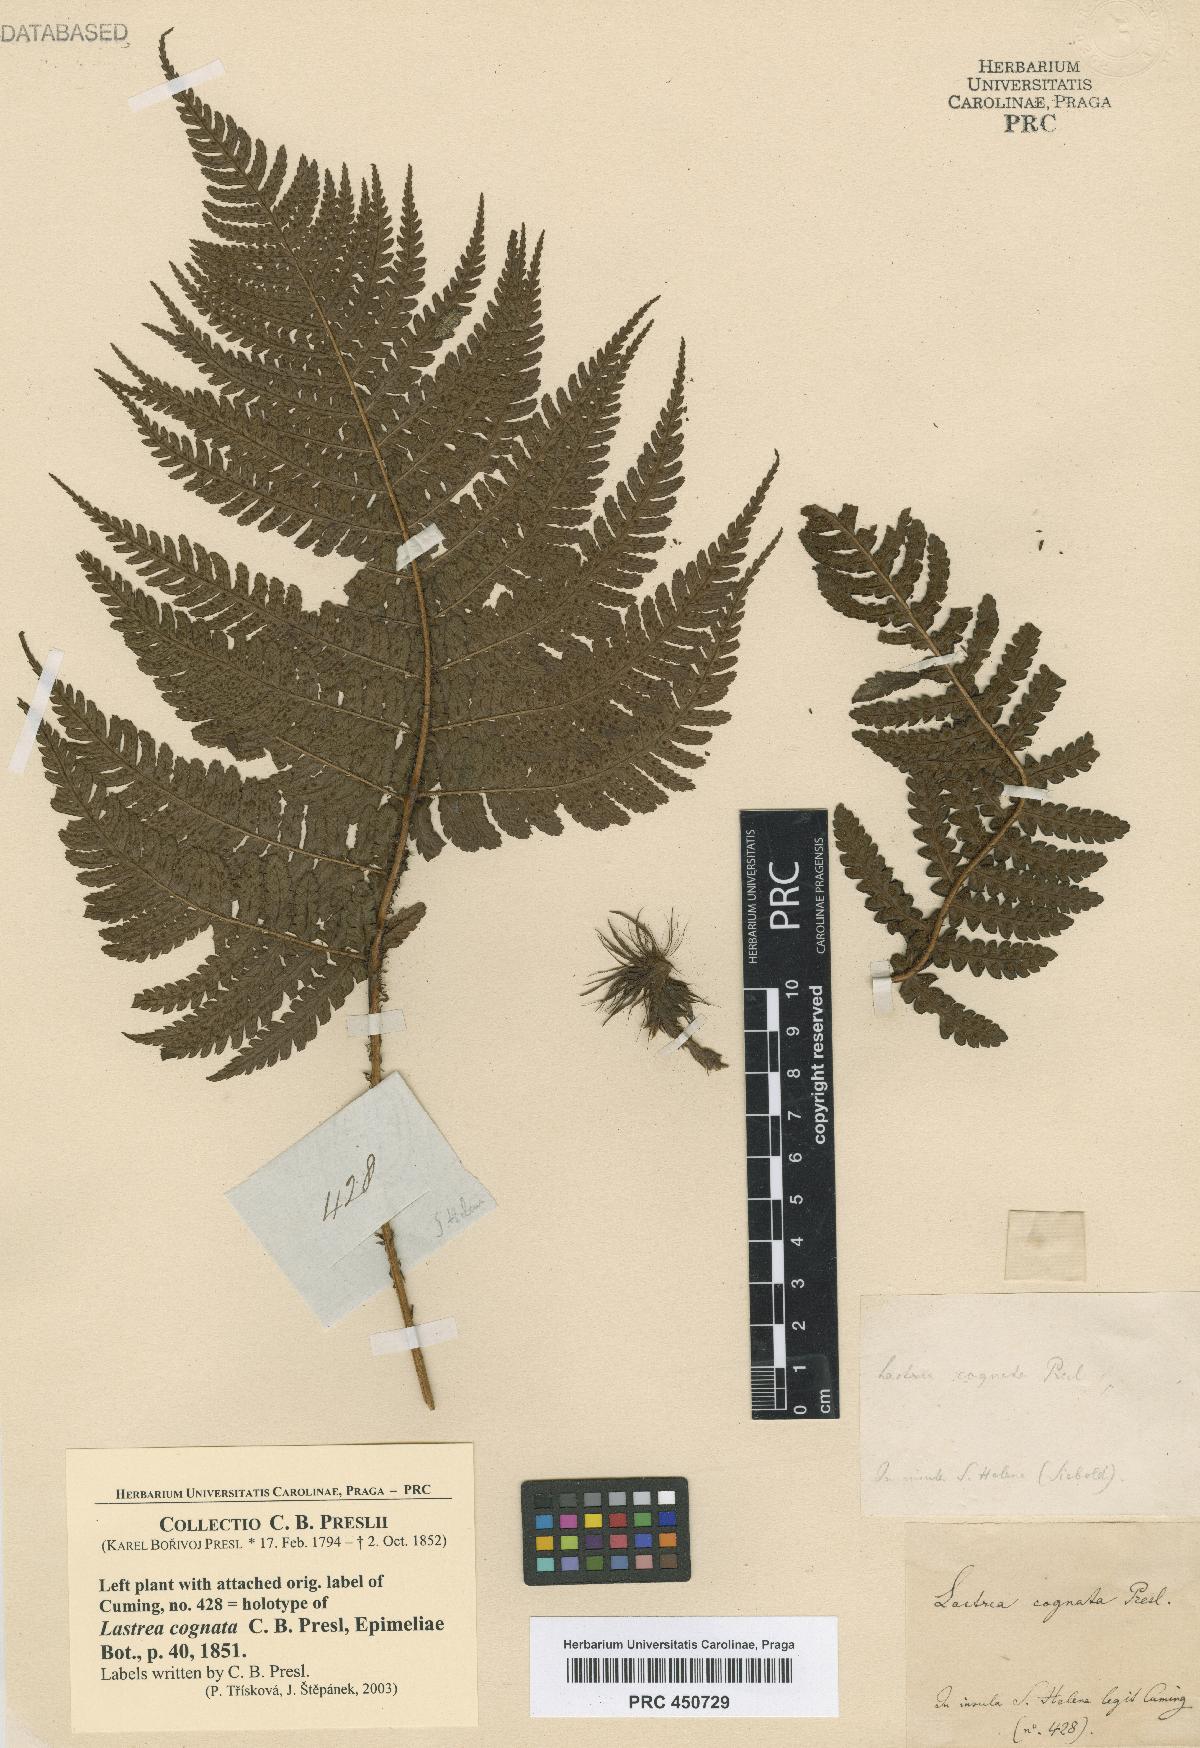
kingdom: Plantae
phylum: Tracheophyta
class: Polypodiopsida
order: Polypodiales
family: Dryopteridaceae
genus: Dryopteris
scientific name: Dryopteris cognata
